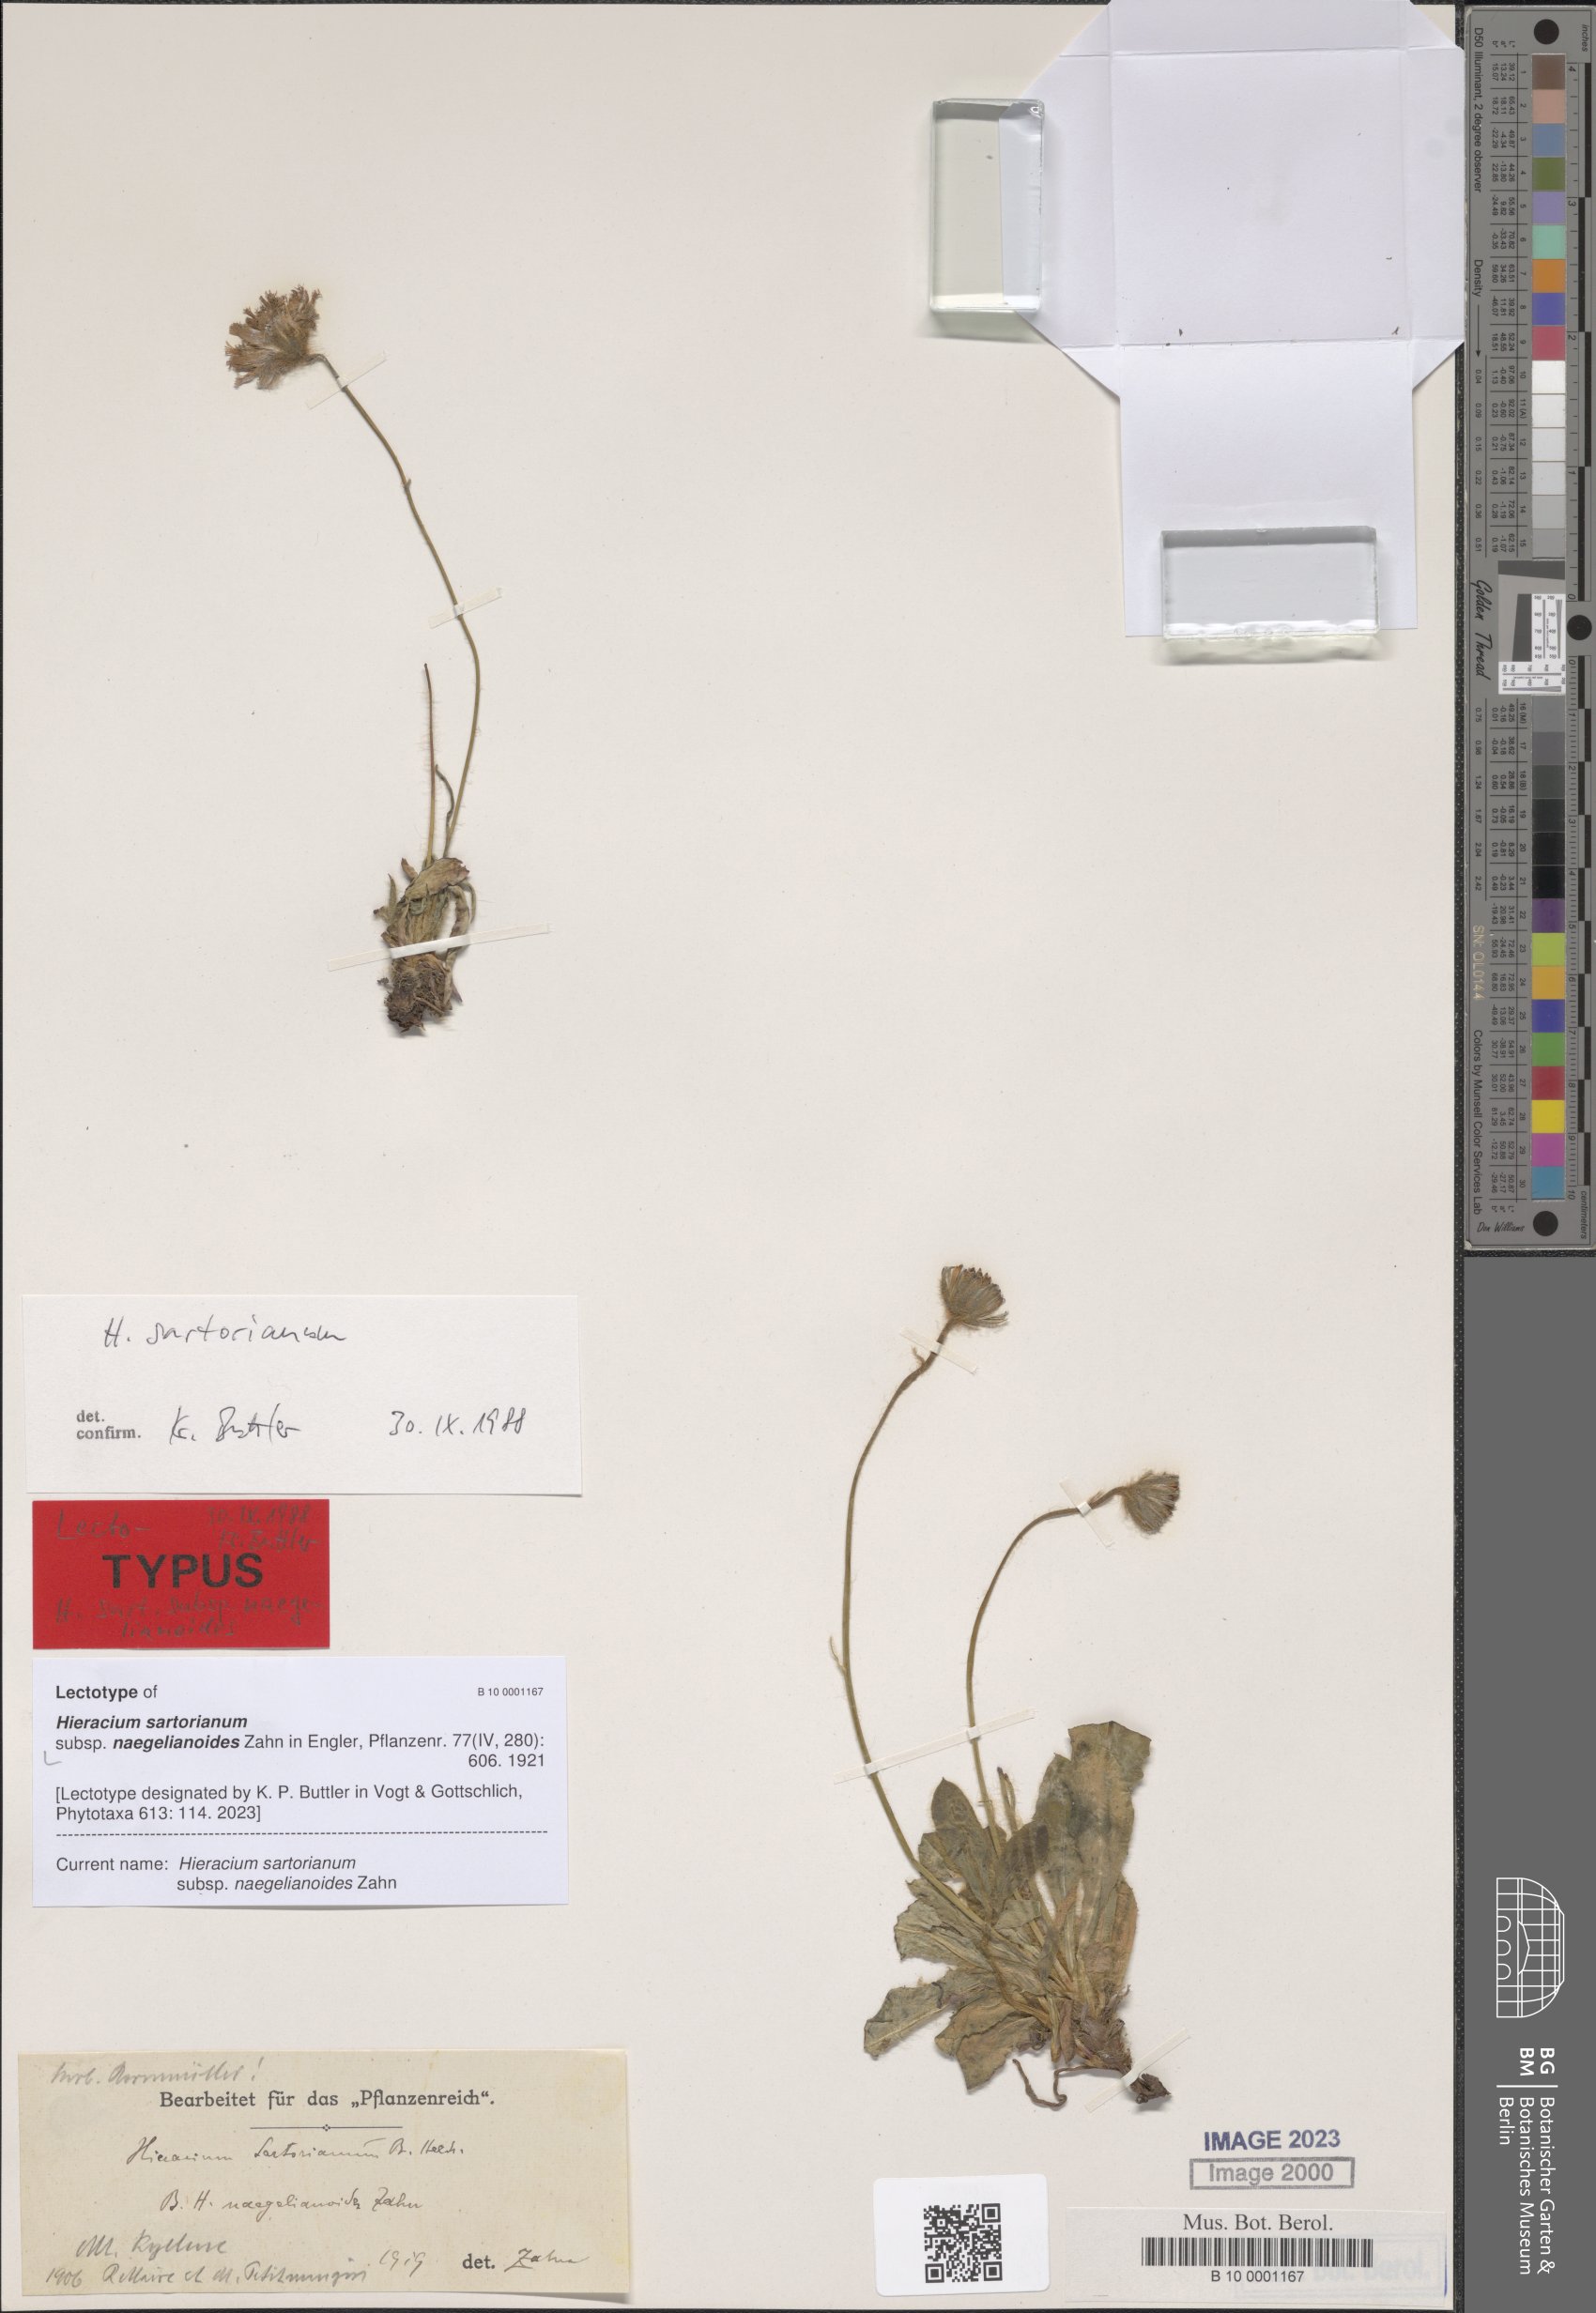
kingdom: Plantae
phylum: Tracheophyta
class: Magnoliopsida
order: Asterales
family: Asteraceae
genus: Hieracium
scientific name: Hieracium sartorianum
